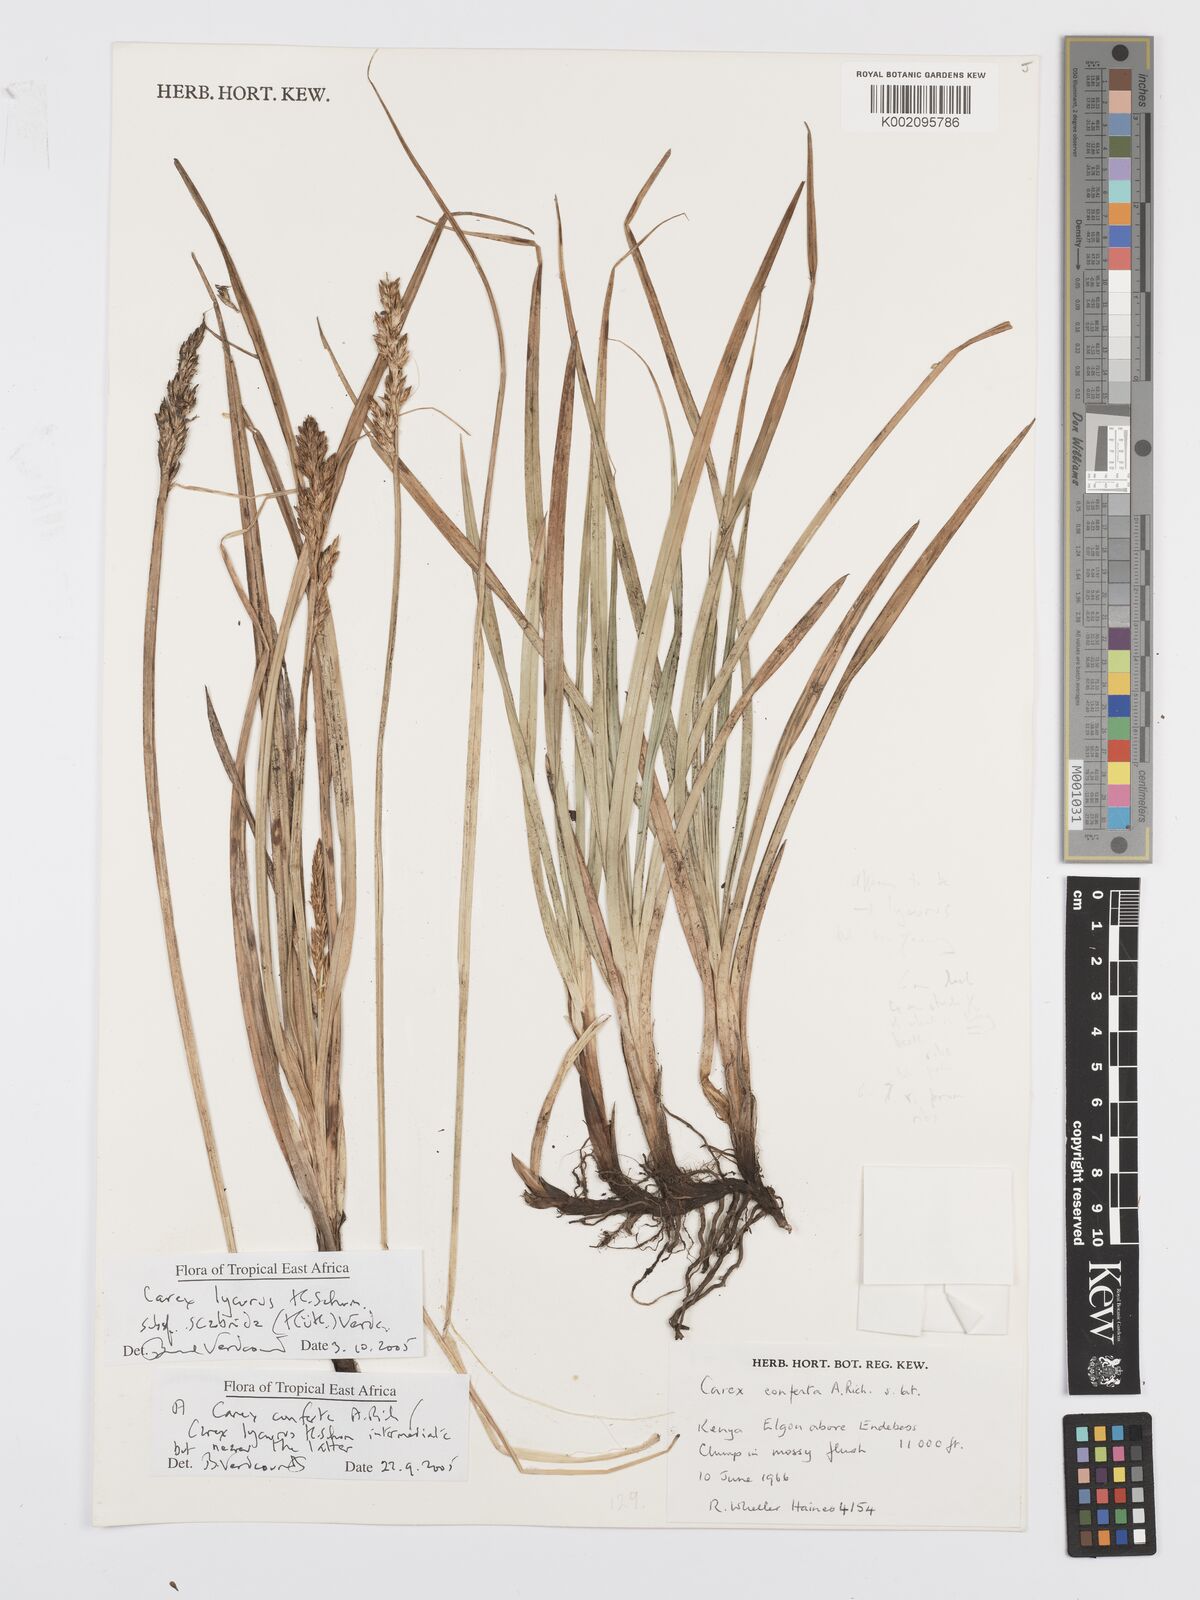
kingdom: Plantae
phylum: Tracheophyta
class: Liliopsida
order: Poales
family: Cyperaceae
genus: Carex
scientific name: Carex lycurus
